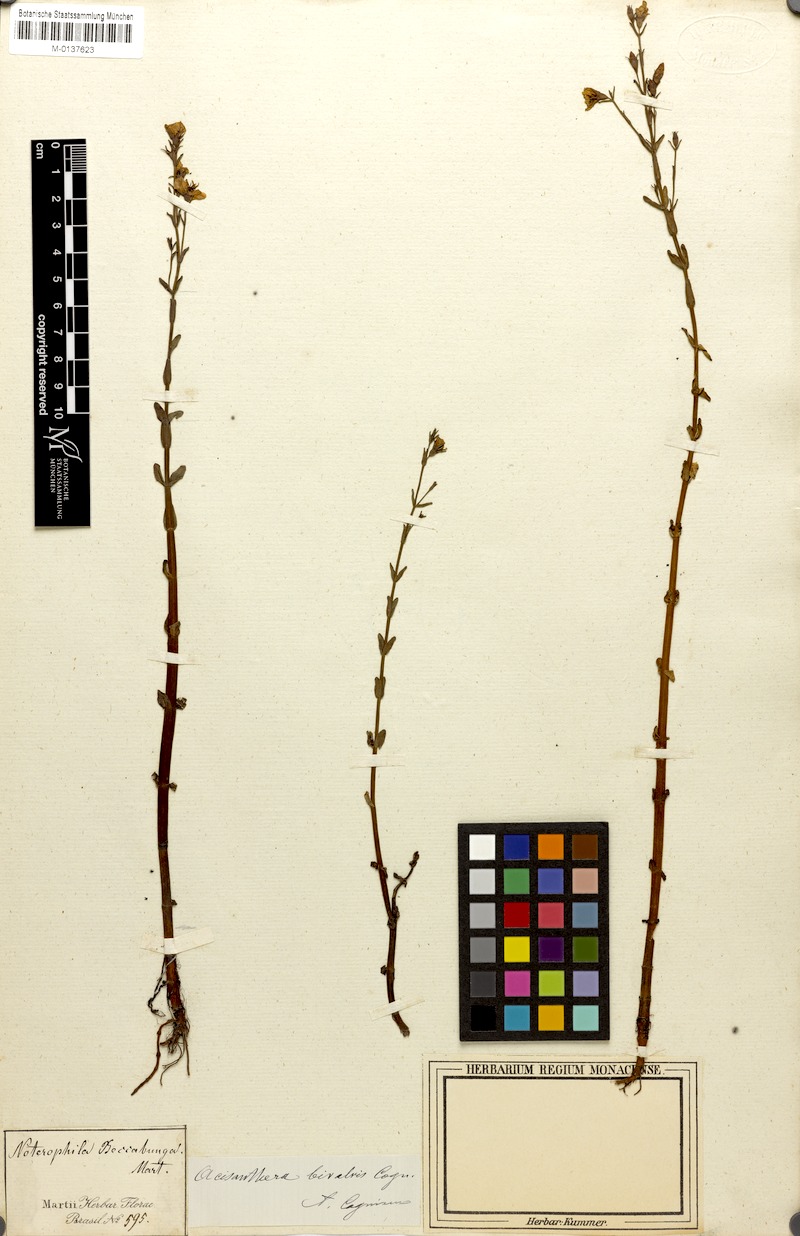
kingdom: Plantae
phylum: Tracheophyta
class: Magnoliopsida
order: Myrtales
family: Melastomataceae
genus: Noterophila
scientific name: Noterophila bivalvis
